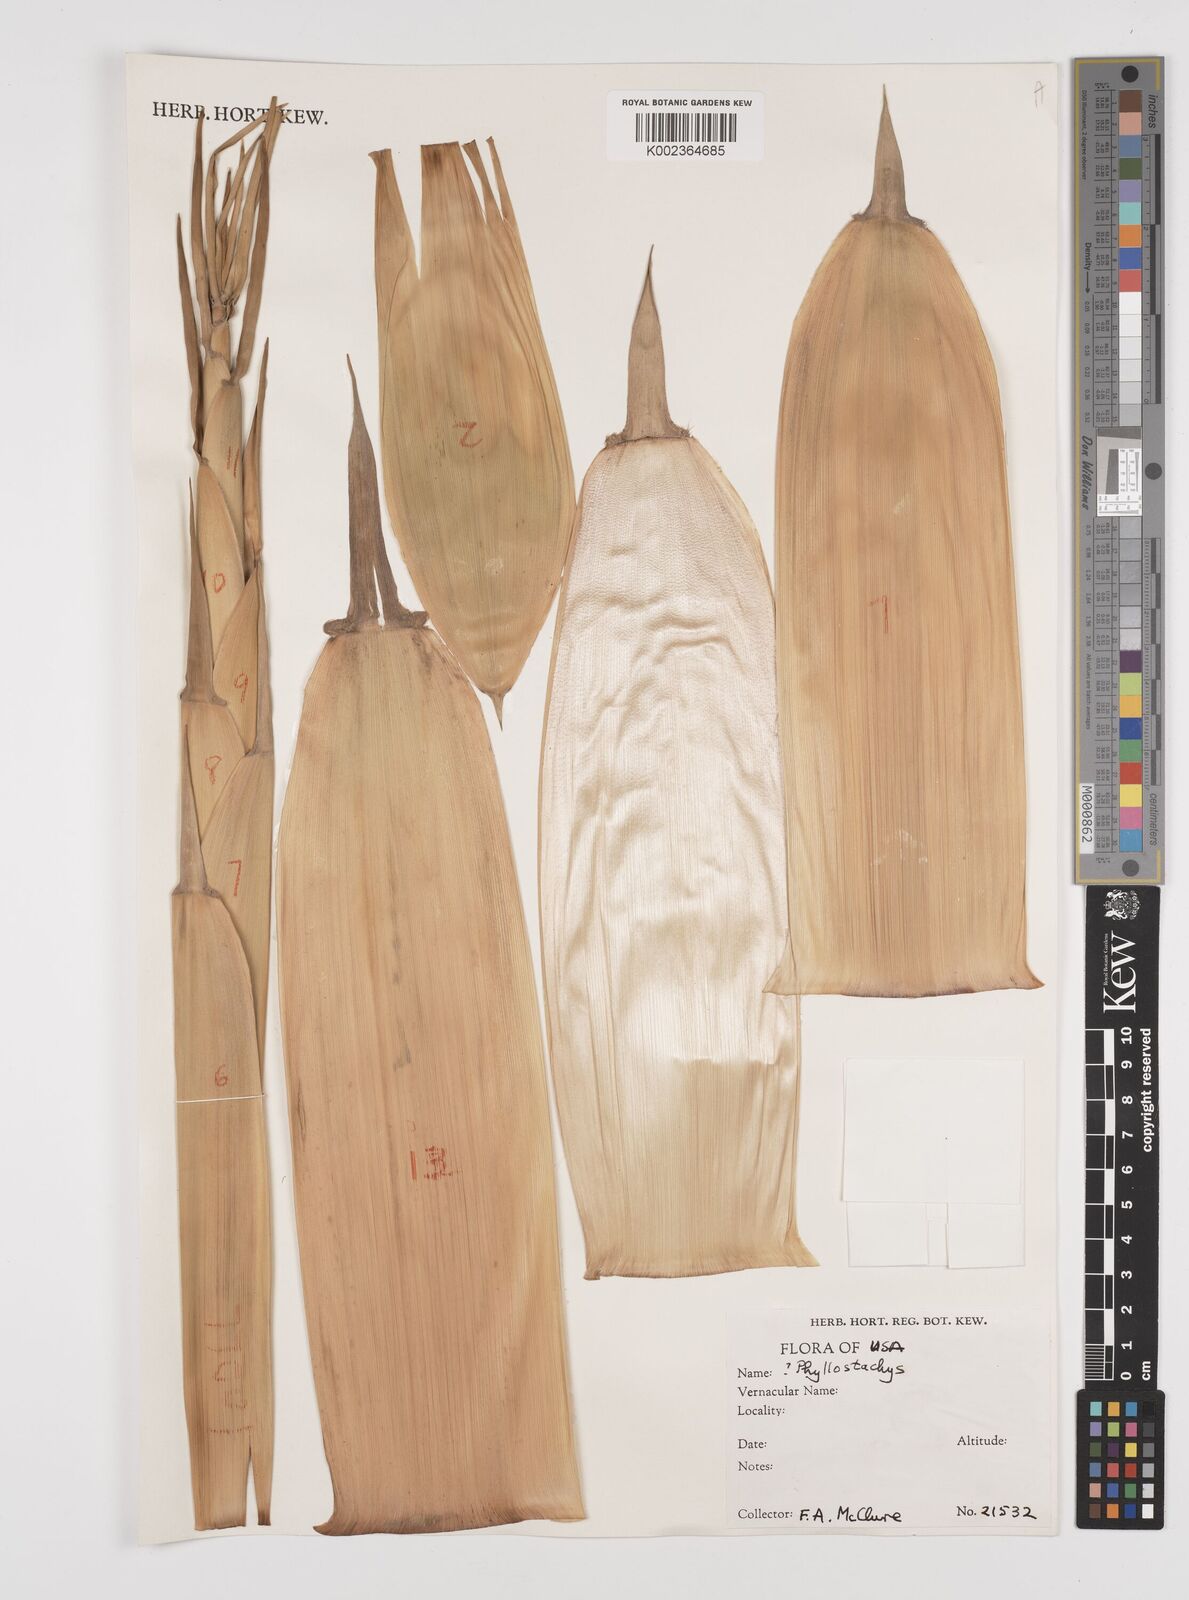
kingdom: Plantae
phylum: Tracheophyta
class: Liliopsida
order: Poales
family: Poaceae
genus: Phyllostachys
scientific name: Phyllostachys
